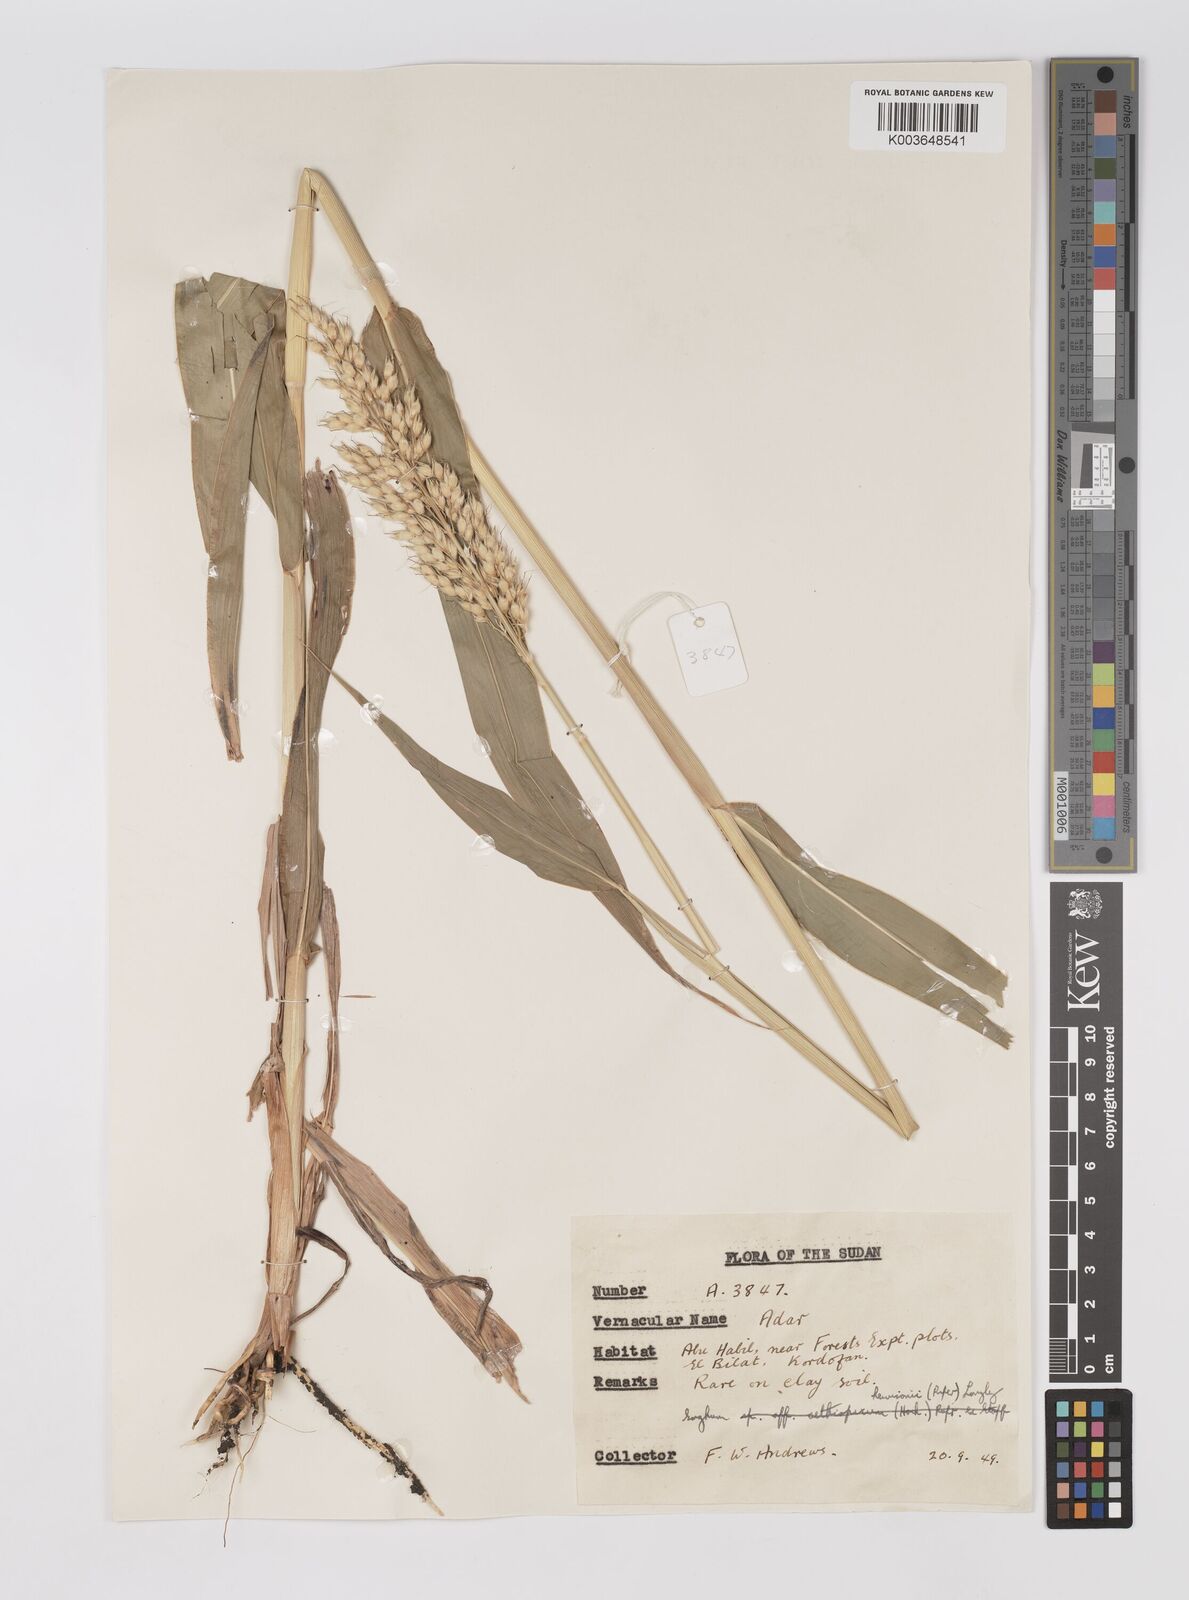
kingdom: Plantae
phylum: Tracheophyta
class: Liliopsida
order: Poales
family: Poaceae
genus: Sorghum
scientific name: Sorghum drummondii
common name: Sudangrass
